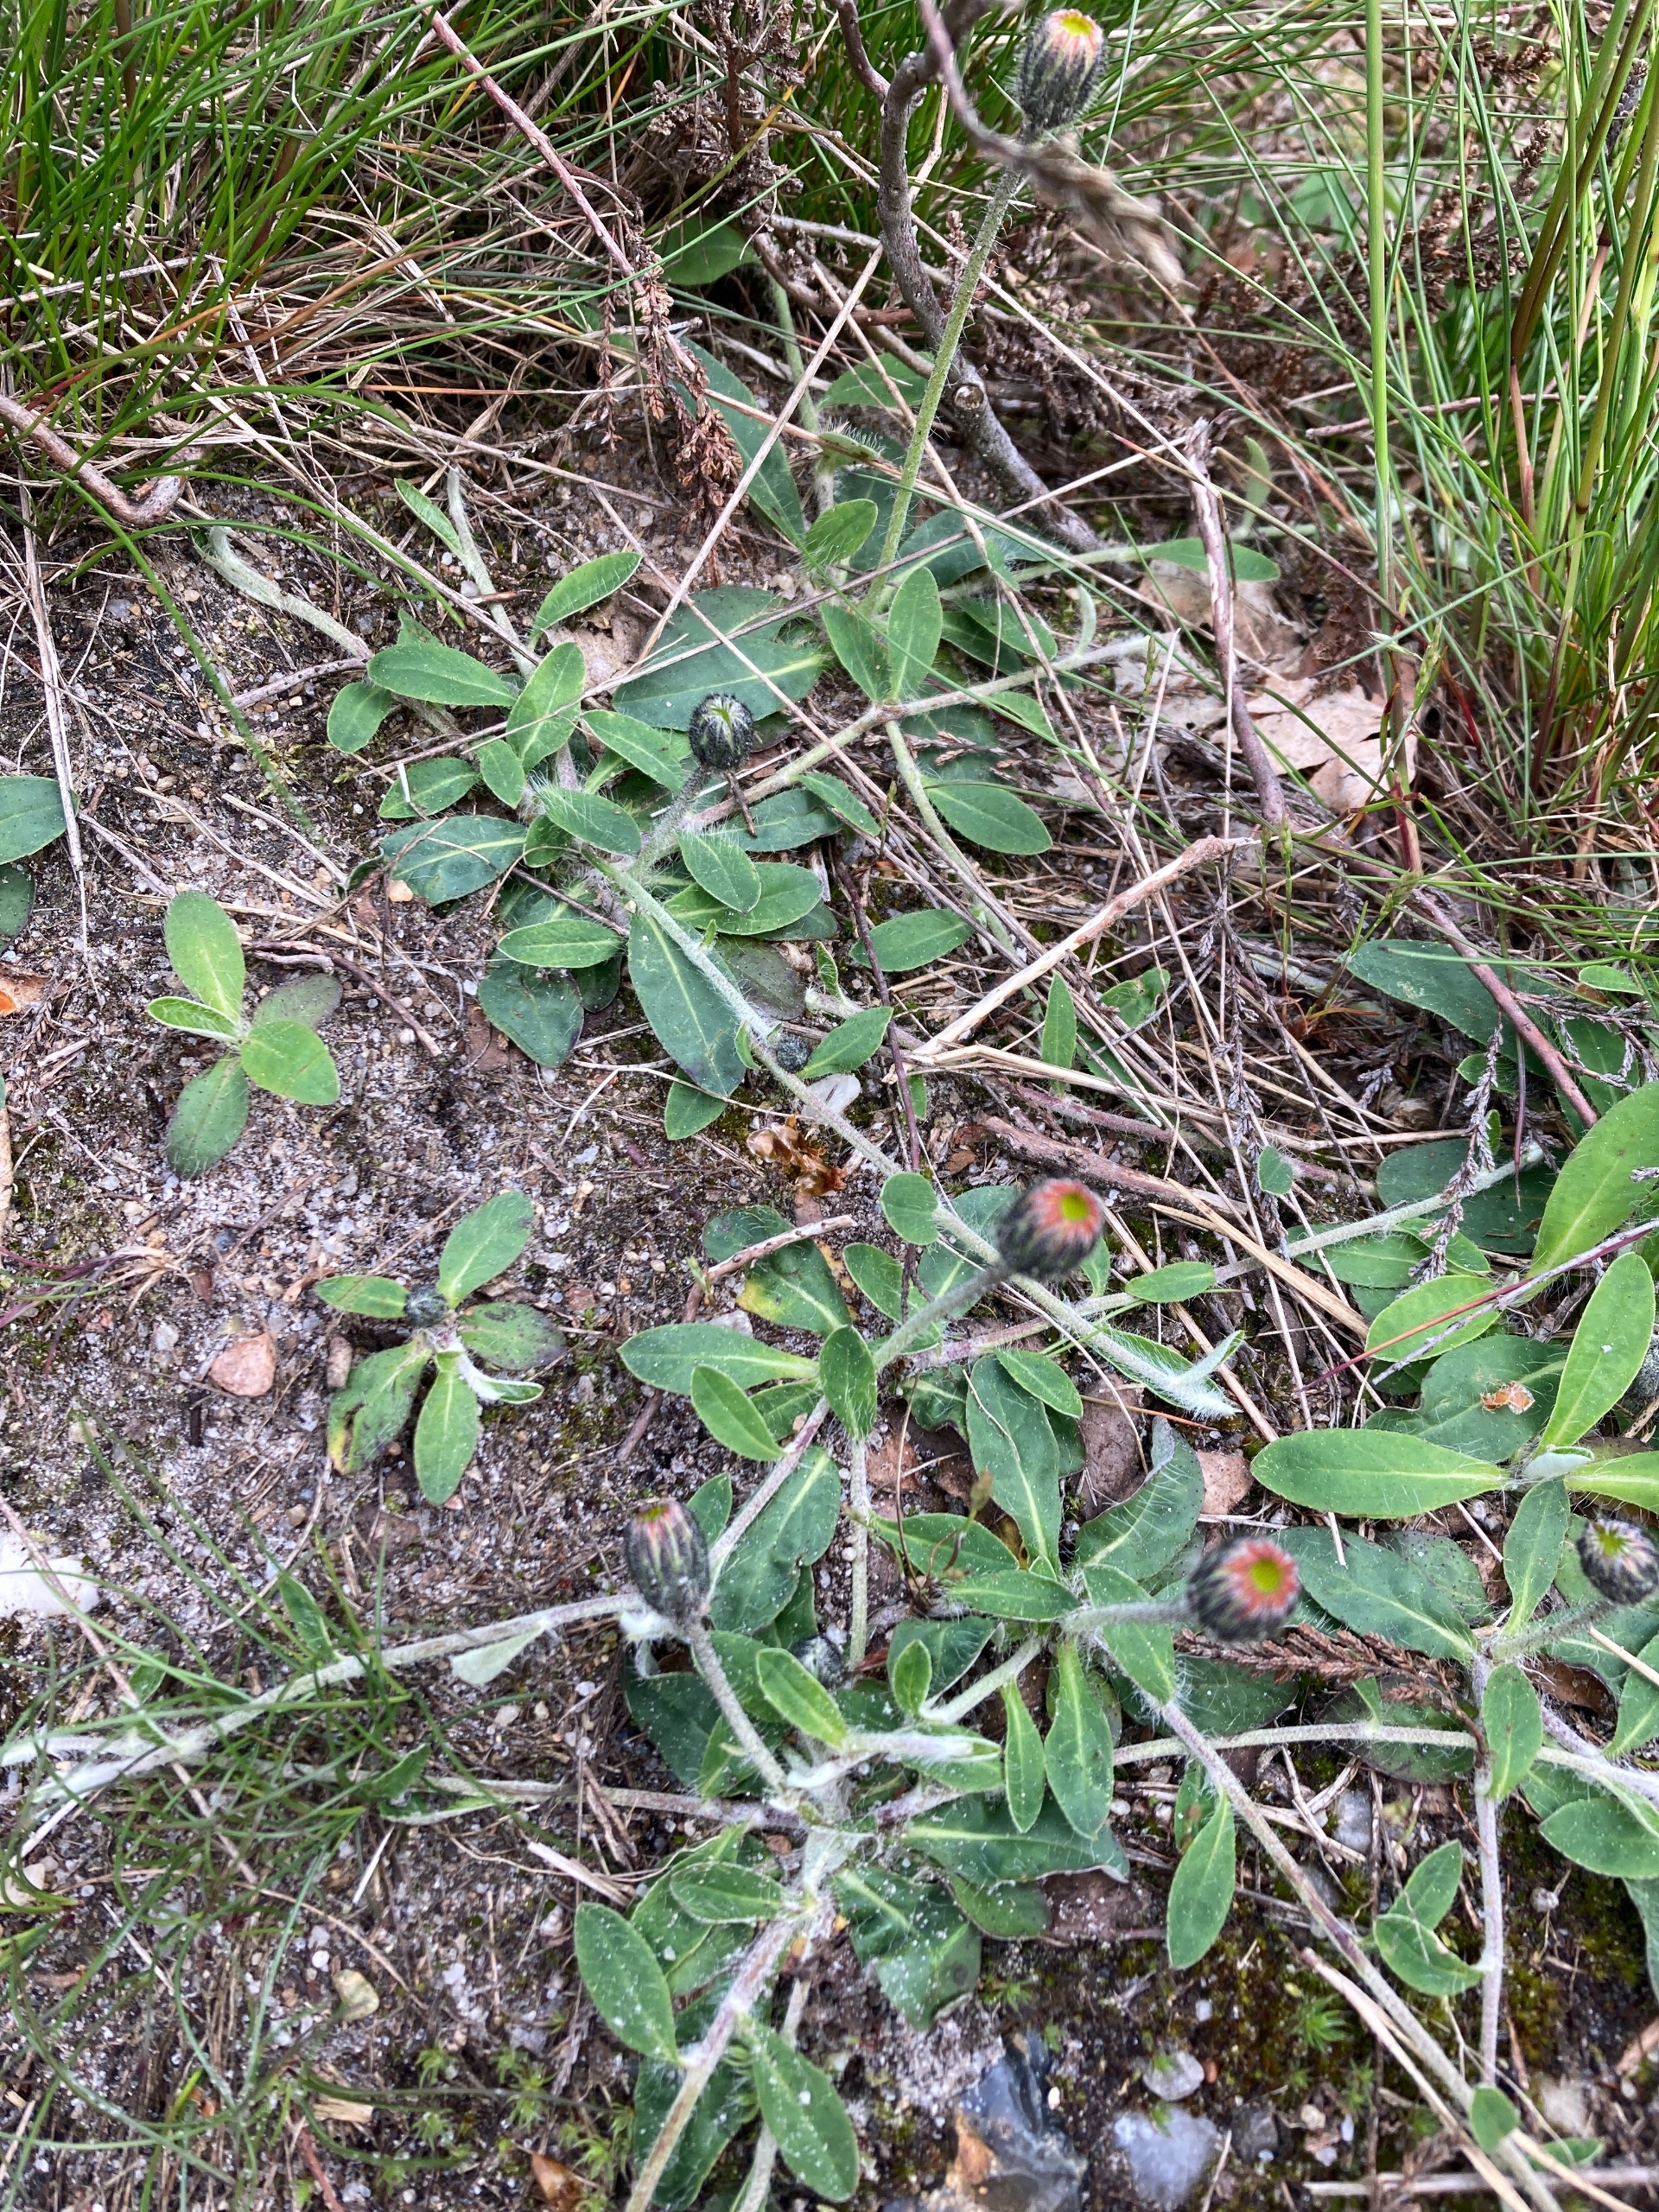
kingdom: Plantae
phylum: Tracheophyta
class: Magnoliopsida
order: Asterales
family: Asteraceae
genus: Pilosella
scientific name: Pilosella officinarum
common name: Håret høgeurt
